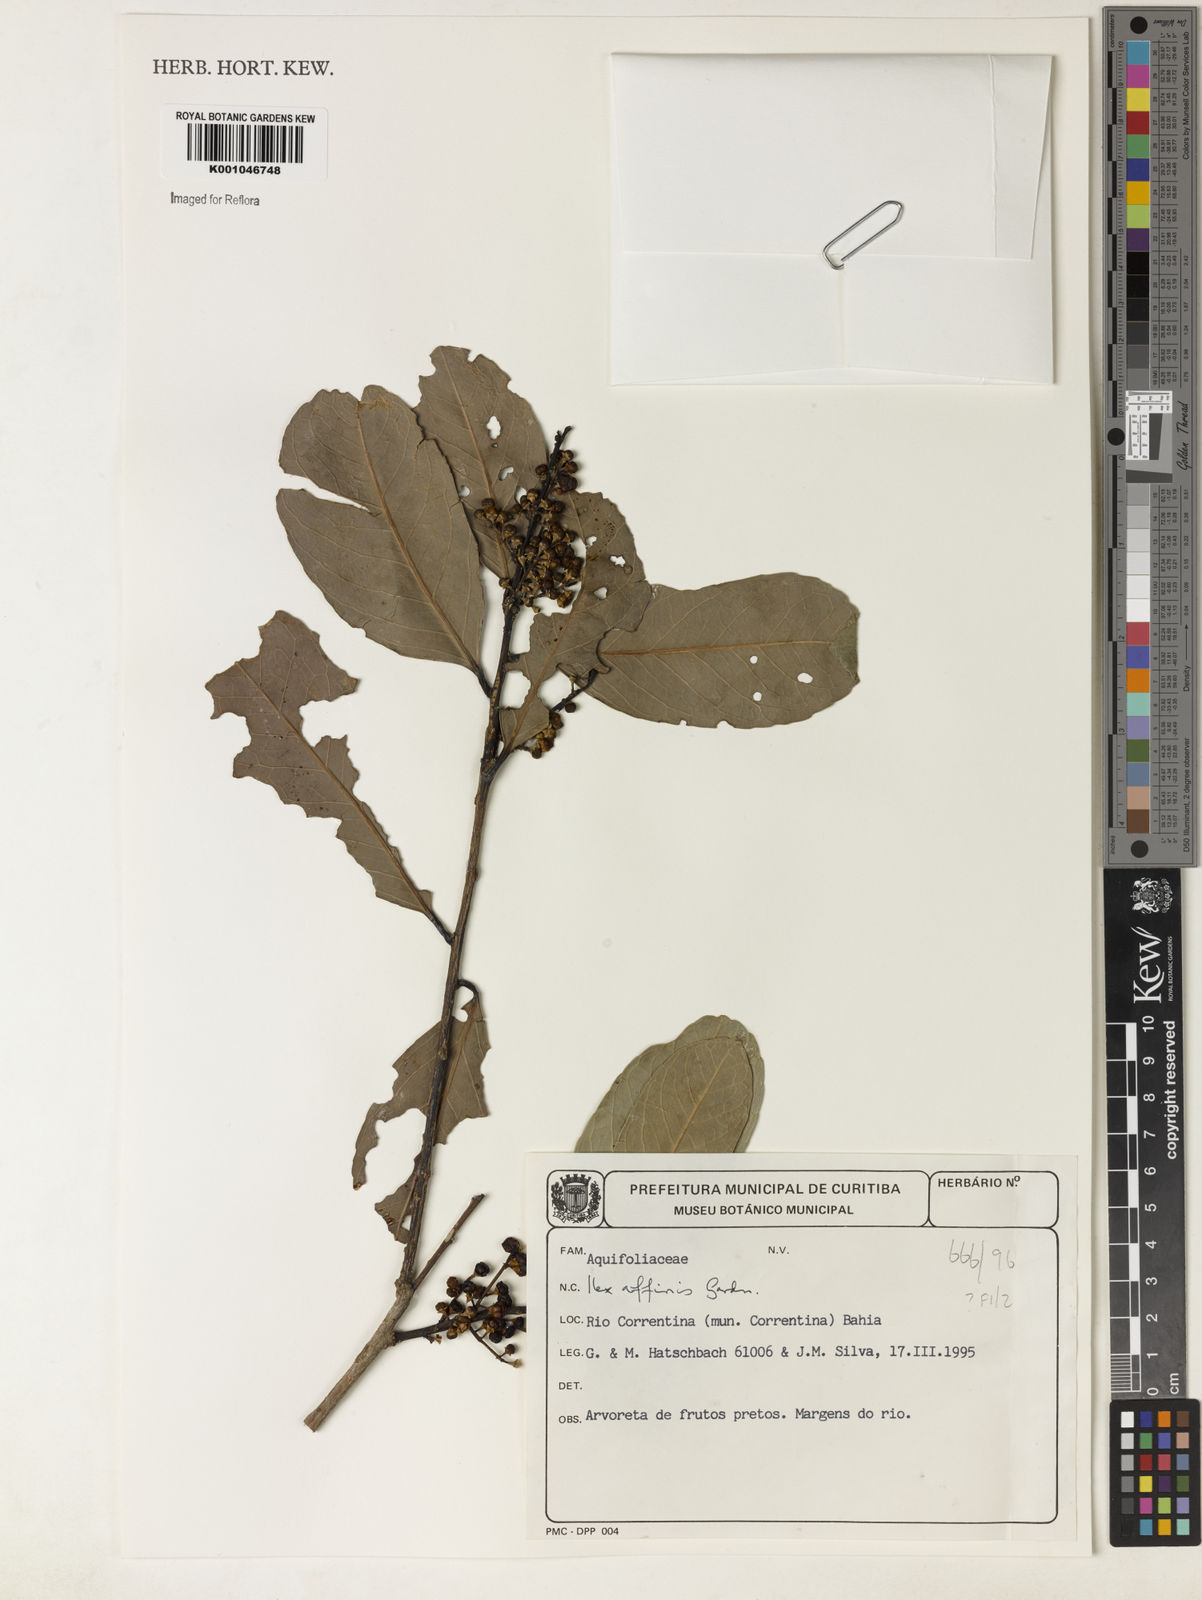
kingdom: Plantae
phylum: Tracheophyta
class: Magnoliopsida
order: Aquifoliales
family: Aquifoliaceae
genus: Ilex
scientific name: Ilex affinis
